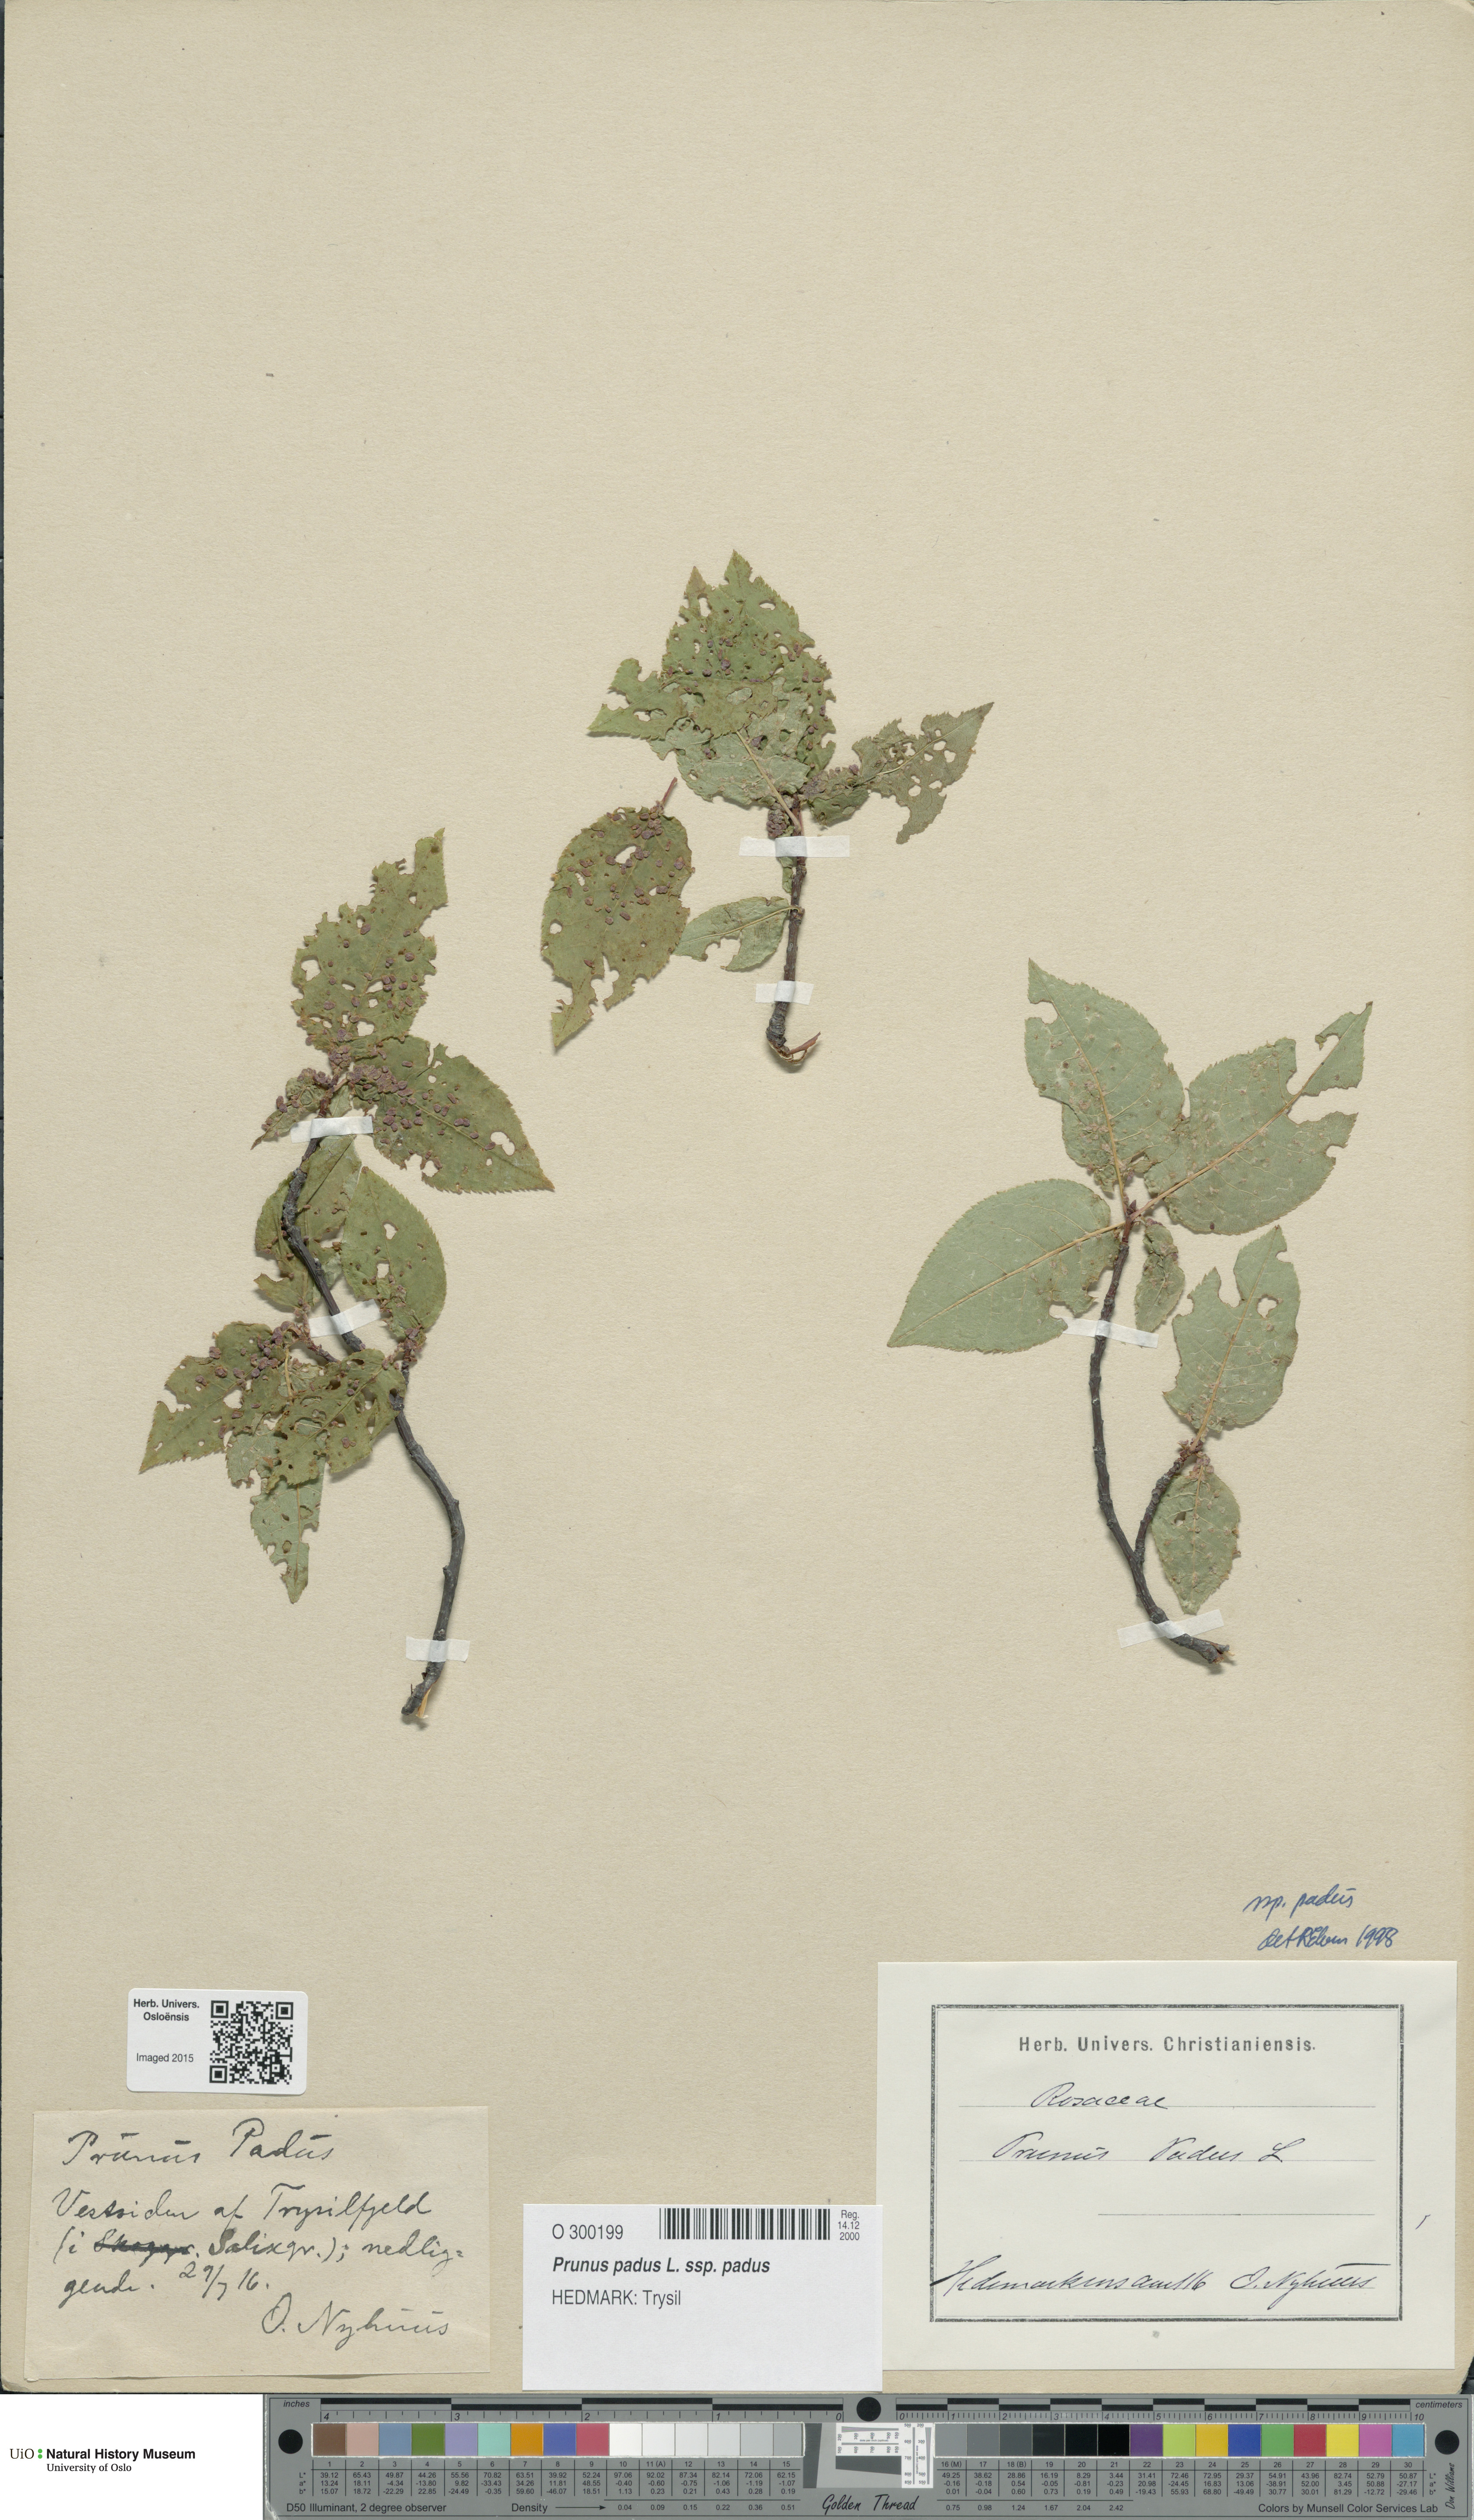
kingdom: Plantae
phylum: Tracheophyta
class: Magnoliopsida
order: Rosales
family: Rosaceae
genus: Prunus
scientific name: Prunus padus
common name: Bird cherry
